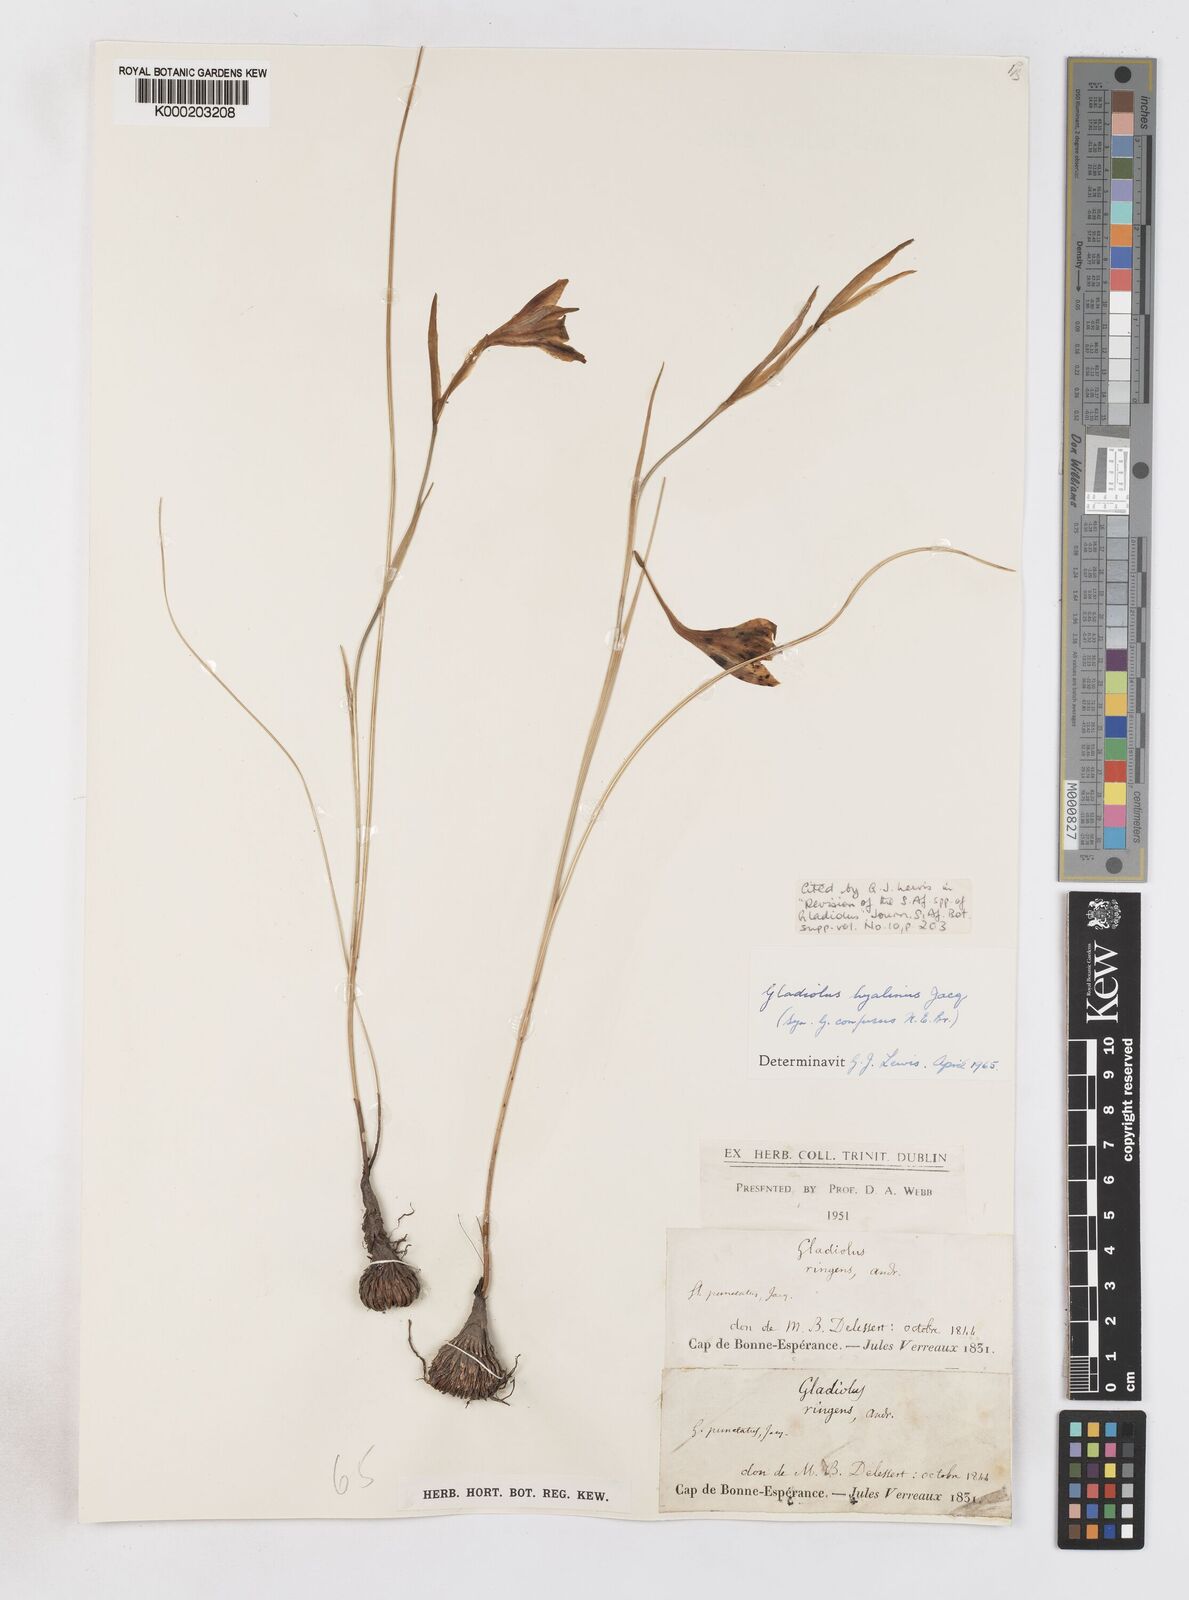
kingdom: Plantae
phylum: Tracheophyta
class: Liliopsida
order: Asparagales
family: Iridaceae
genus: Gladiolus
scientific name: Gladiolus hyalinus
